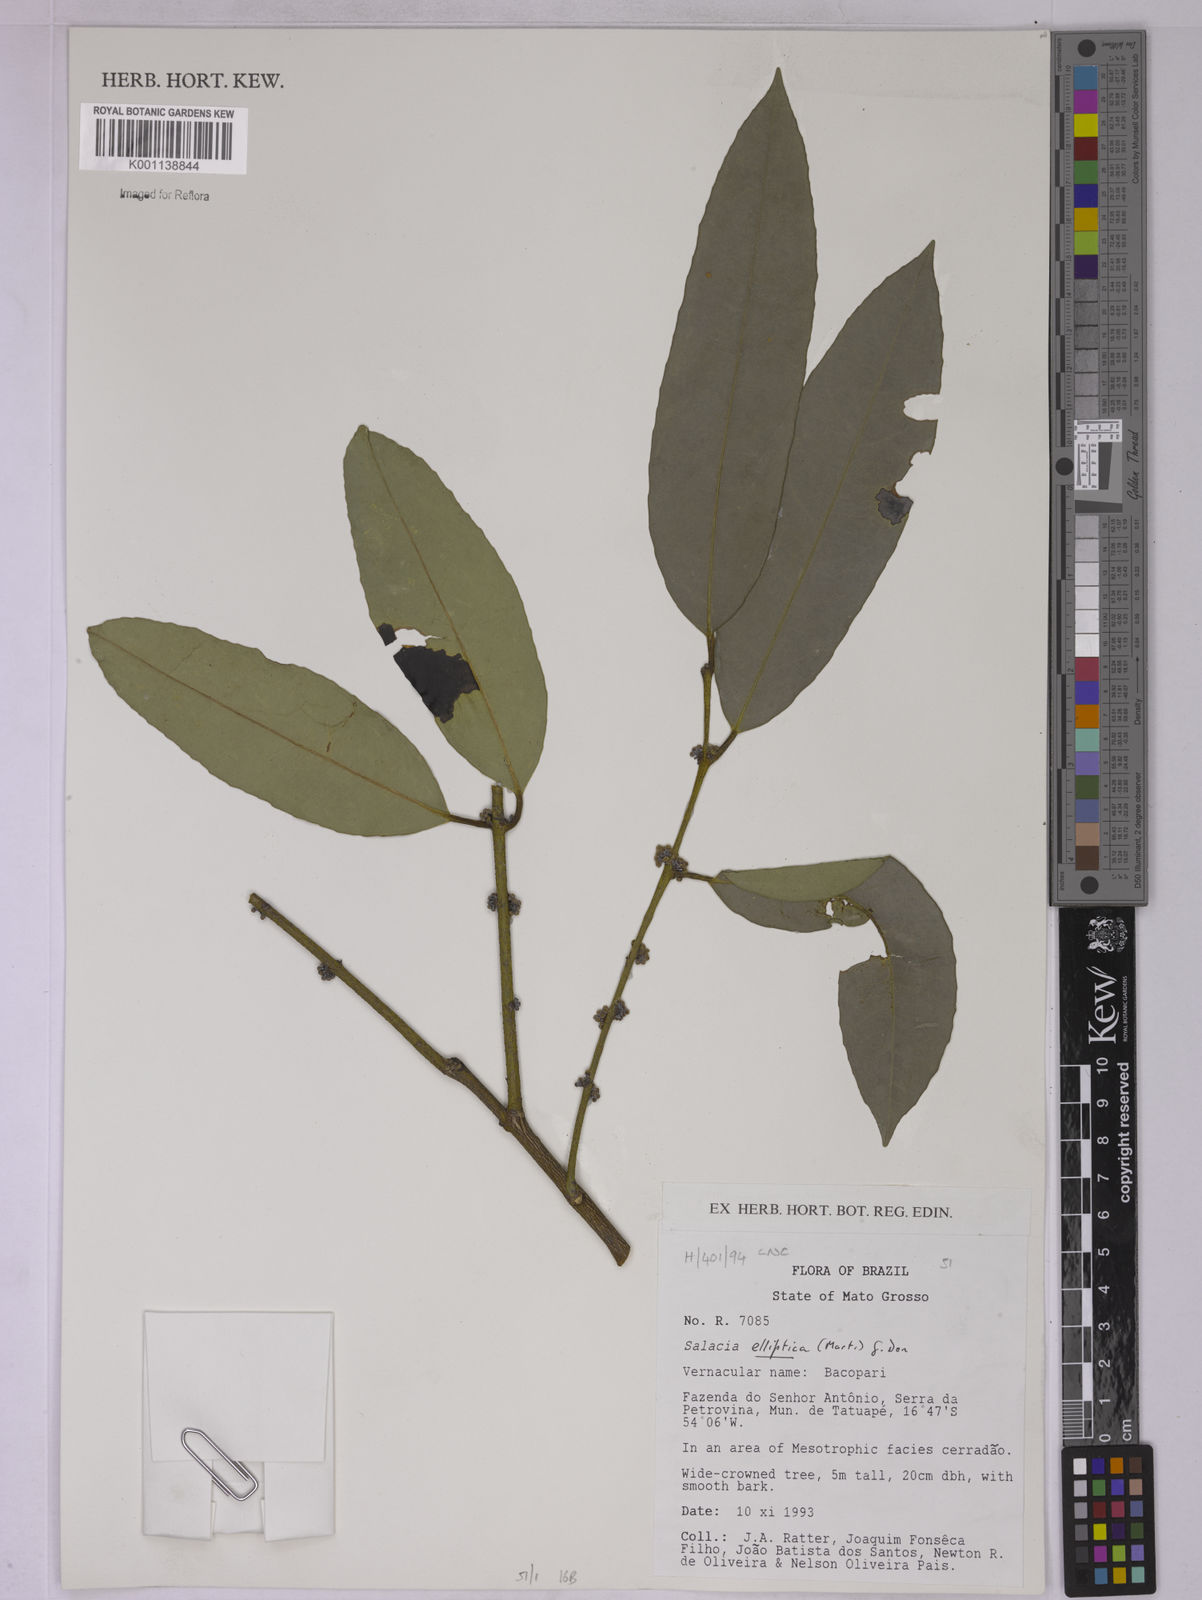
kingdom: Plantae
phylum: Tracheophyta
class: Magnoliopsida
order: Celastrales
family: Celastraceae
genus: Salacia
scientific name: Salacia elliptica
